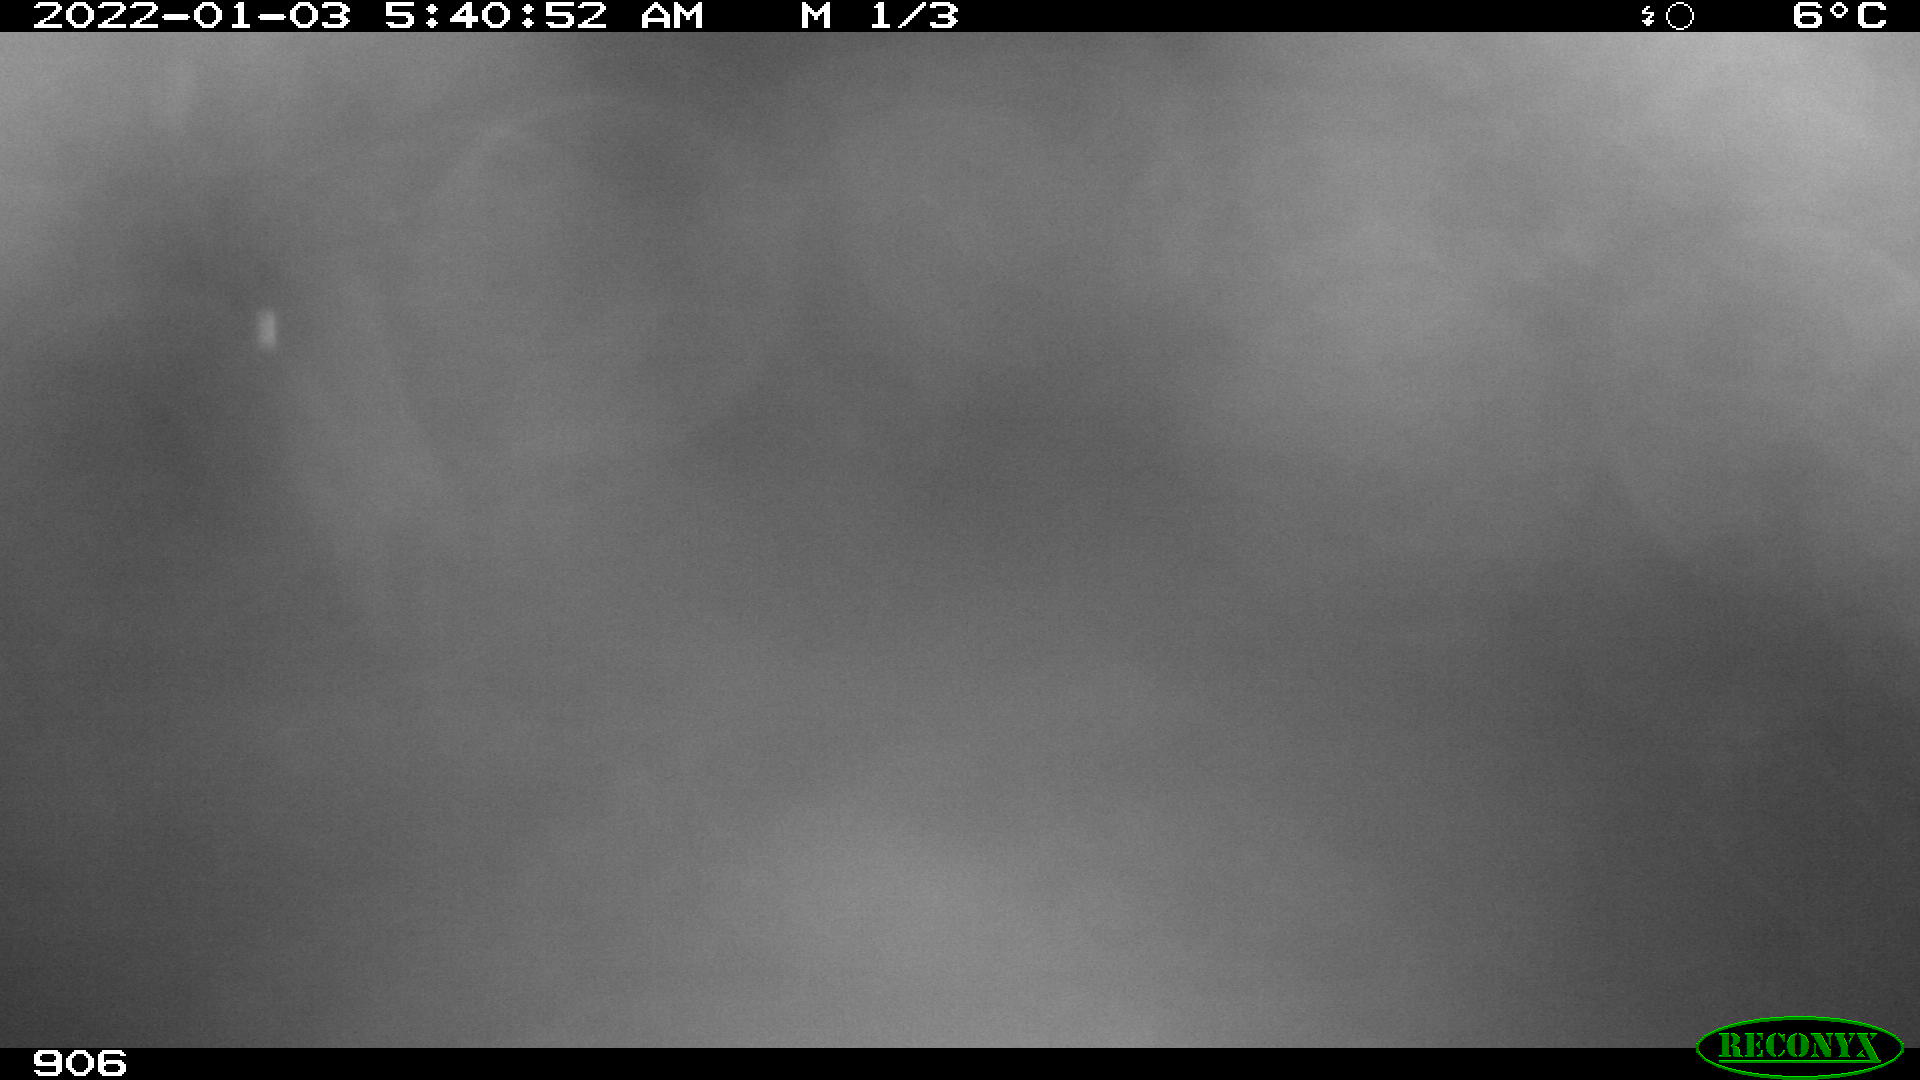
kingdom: Animalia
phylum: Chordata
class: Mammalia
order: Perissodactyla
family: Equidae
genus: Equus
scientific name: Equus caballus
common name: Horse
